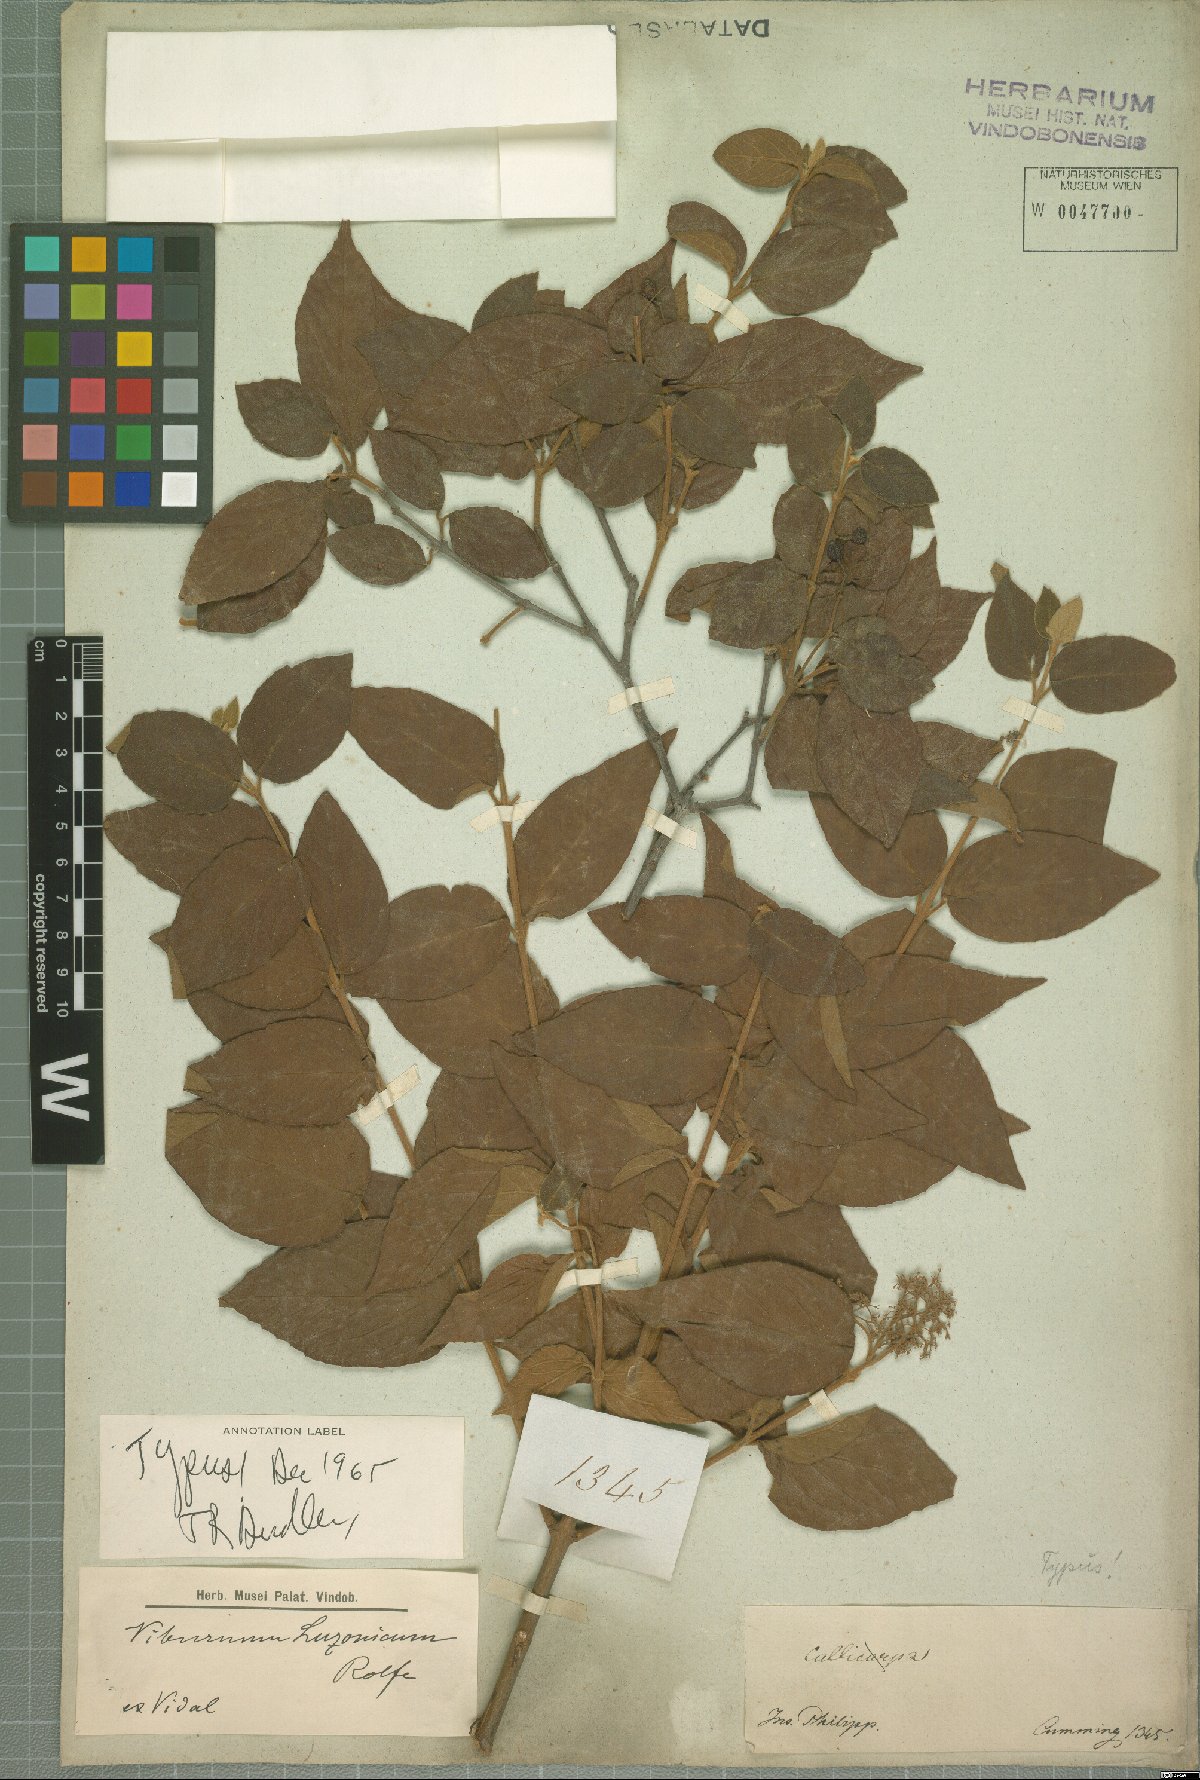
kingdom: Plantae
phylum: Tracheophyta
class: Magnoliopsida
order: Dipsacales
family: Viburnaceae
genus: Viburnum
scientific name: Viburnum luzonicum
